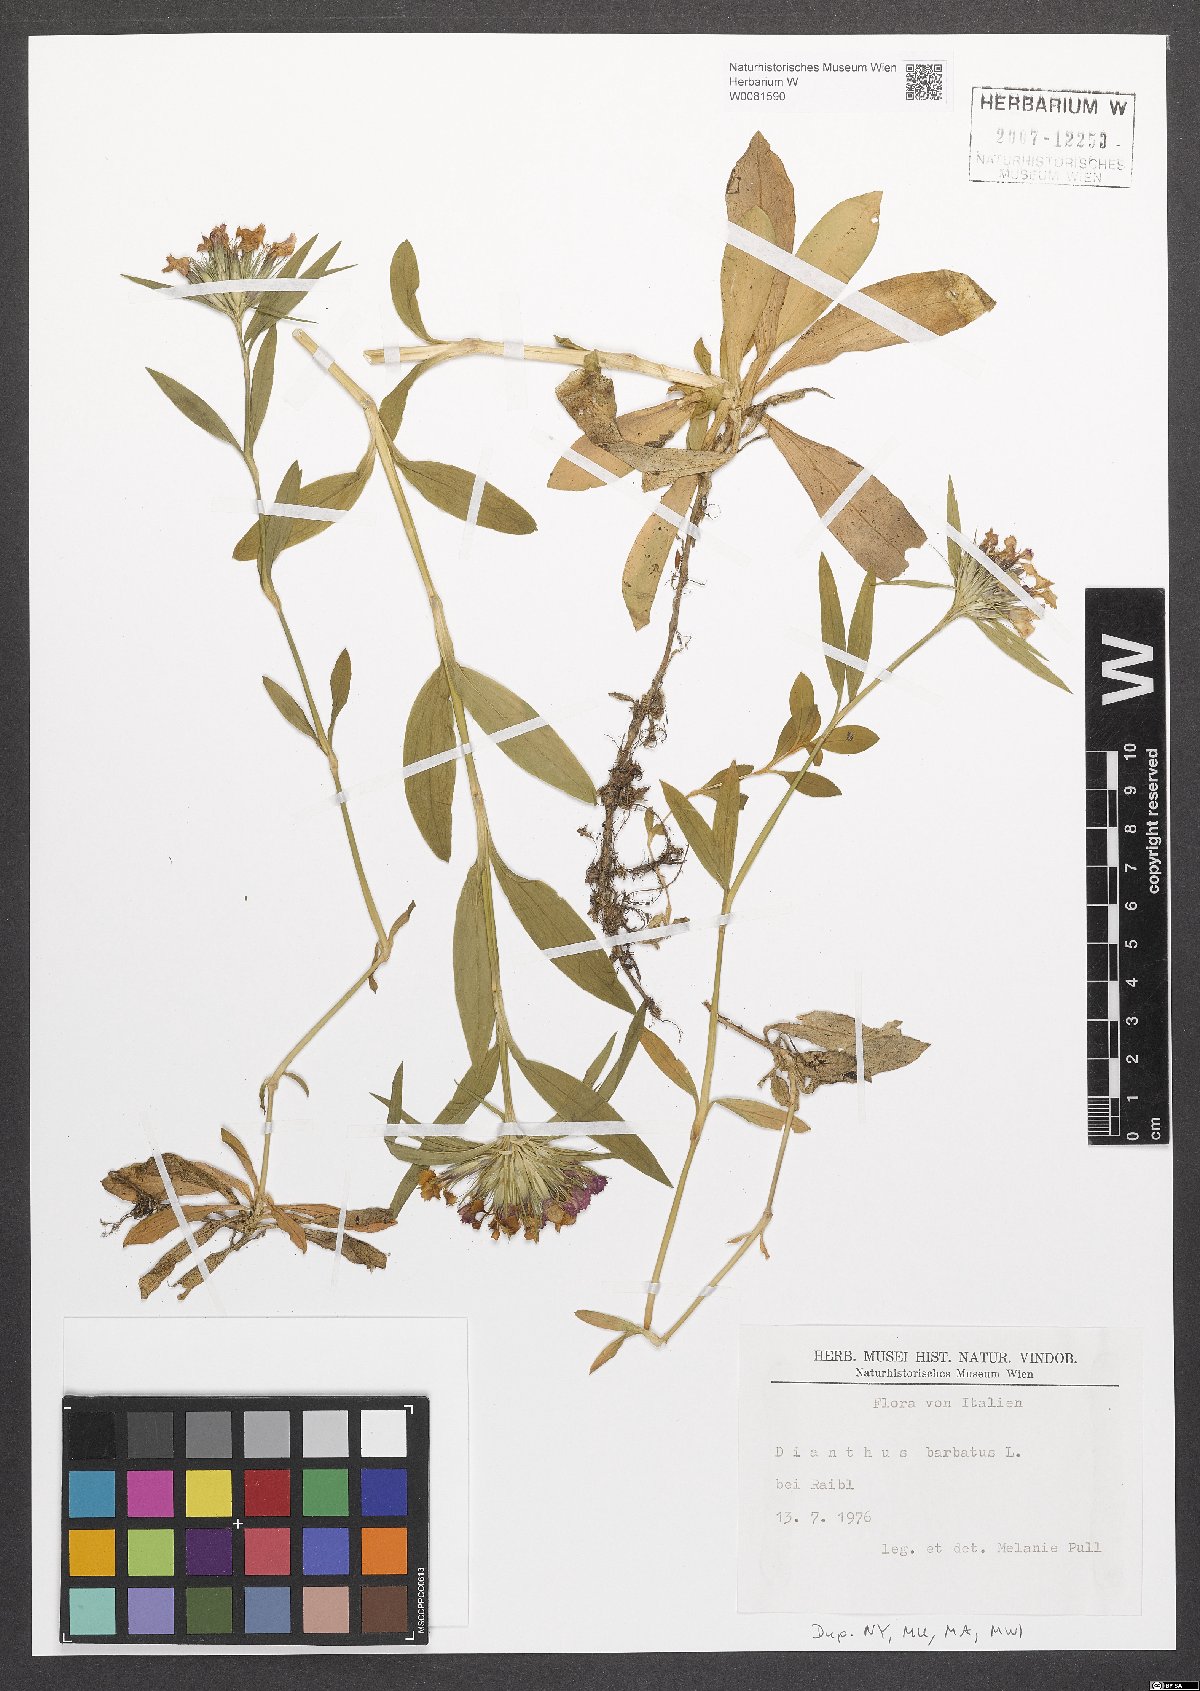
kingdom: Plantae
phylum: Tracheophyta
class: Magnoliopsida
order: Caryophyllales
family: Caryophyllaceae
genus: Dianthus
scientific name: Dianthus barbatus
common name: Sweet-william
